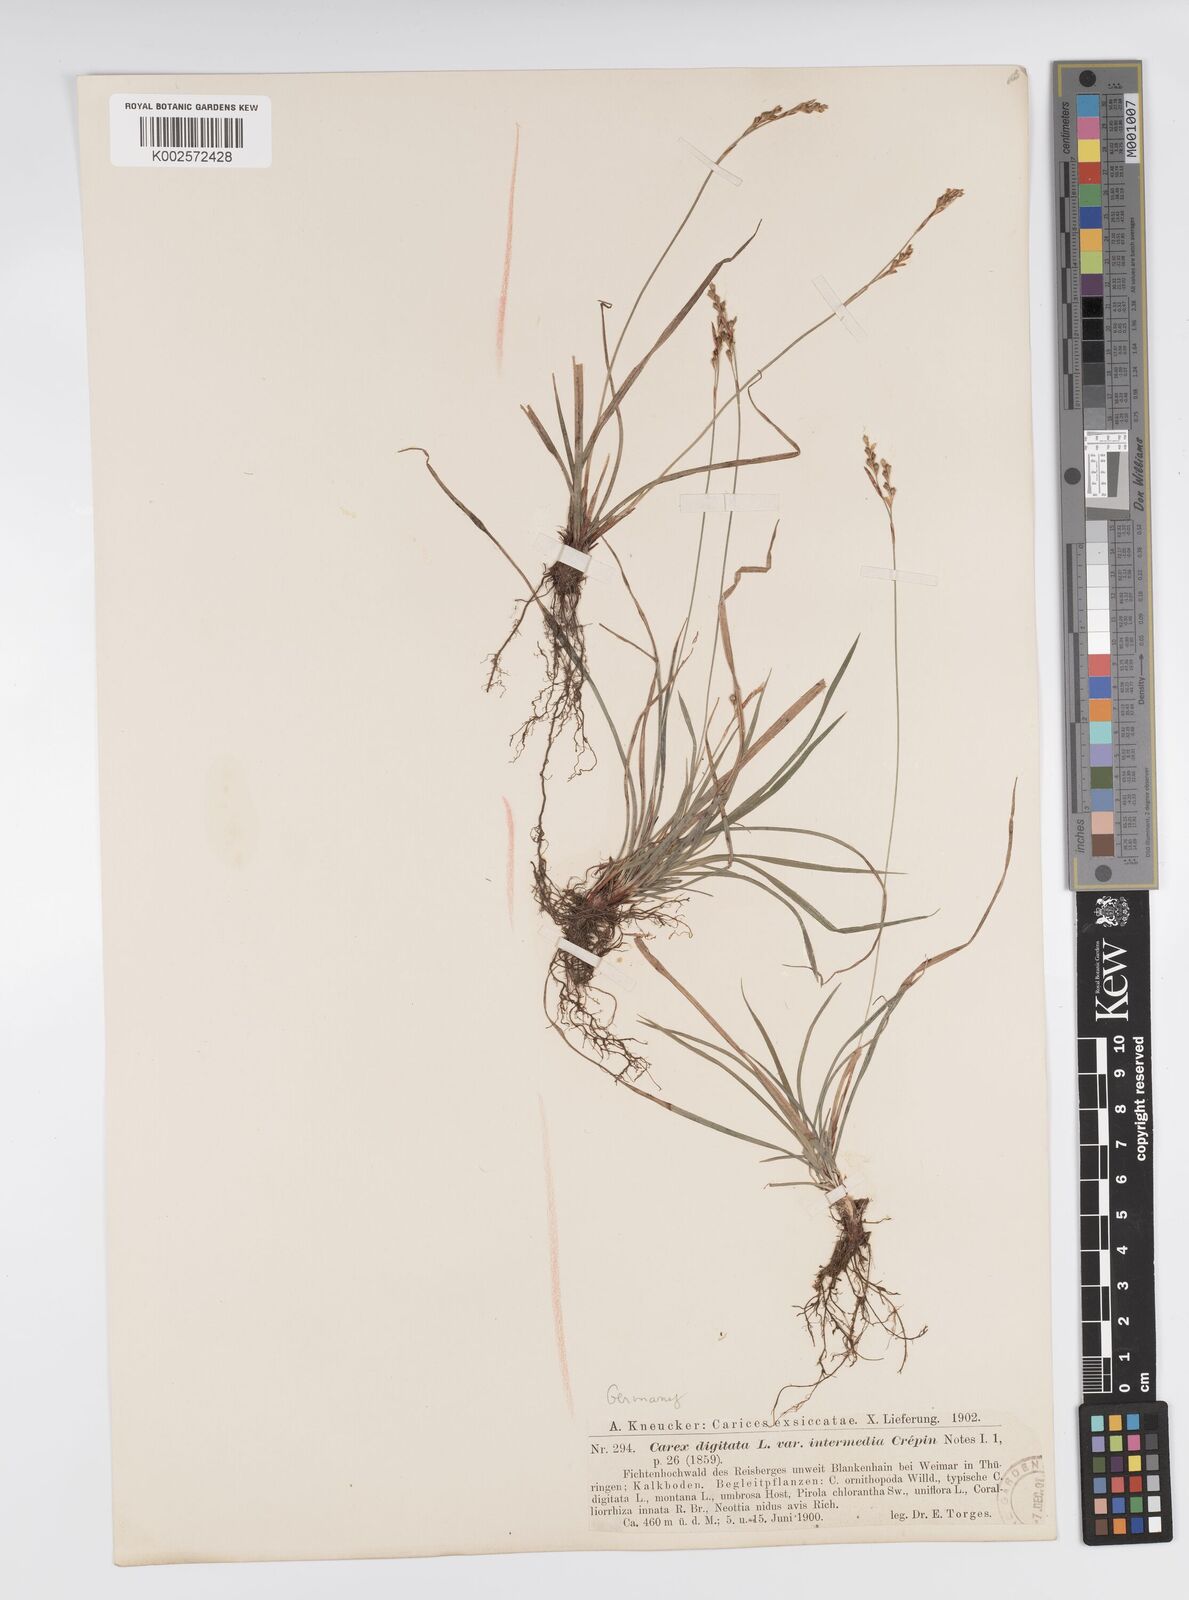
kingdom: Plantae
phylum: Tracheophyta
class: Liliopsida
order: Poales
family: Cyperaceae
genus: Carex
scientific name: Carex digitata
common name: Fingered sedge
